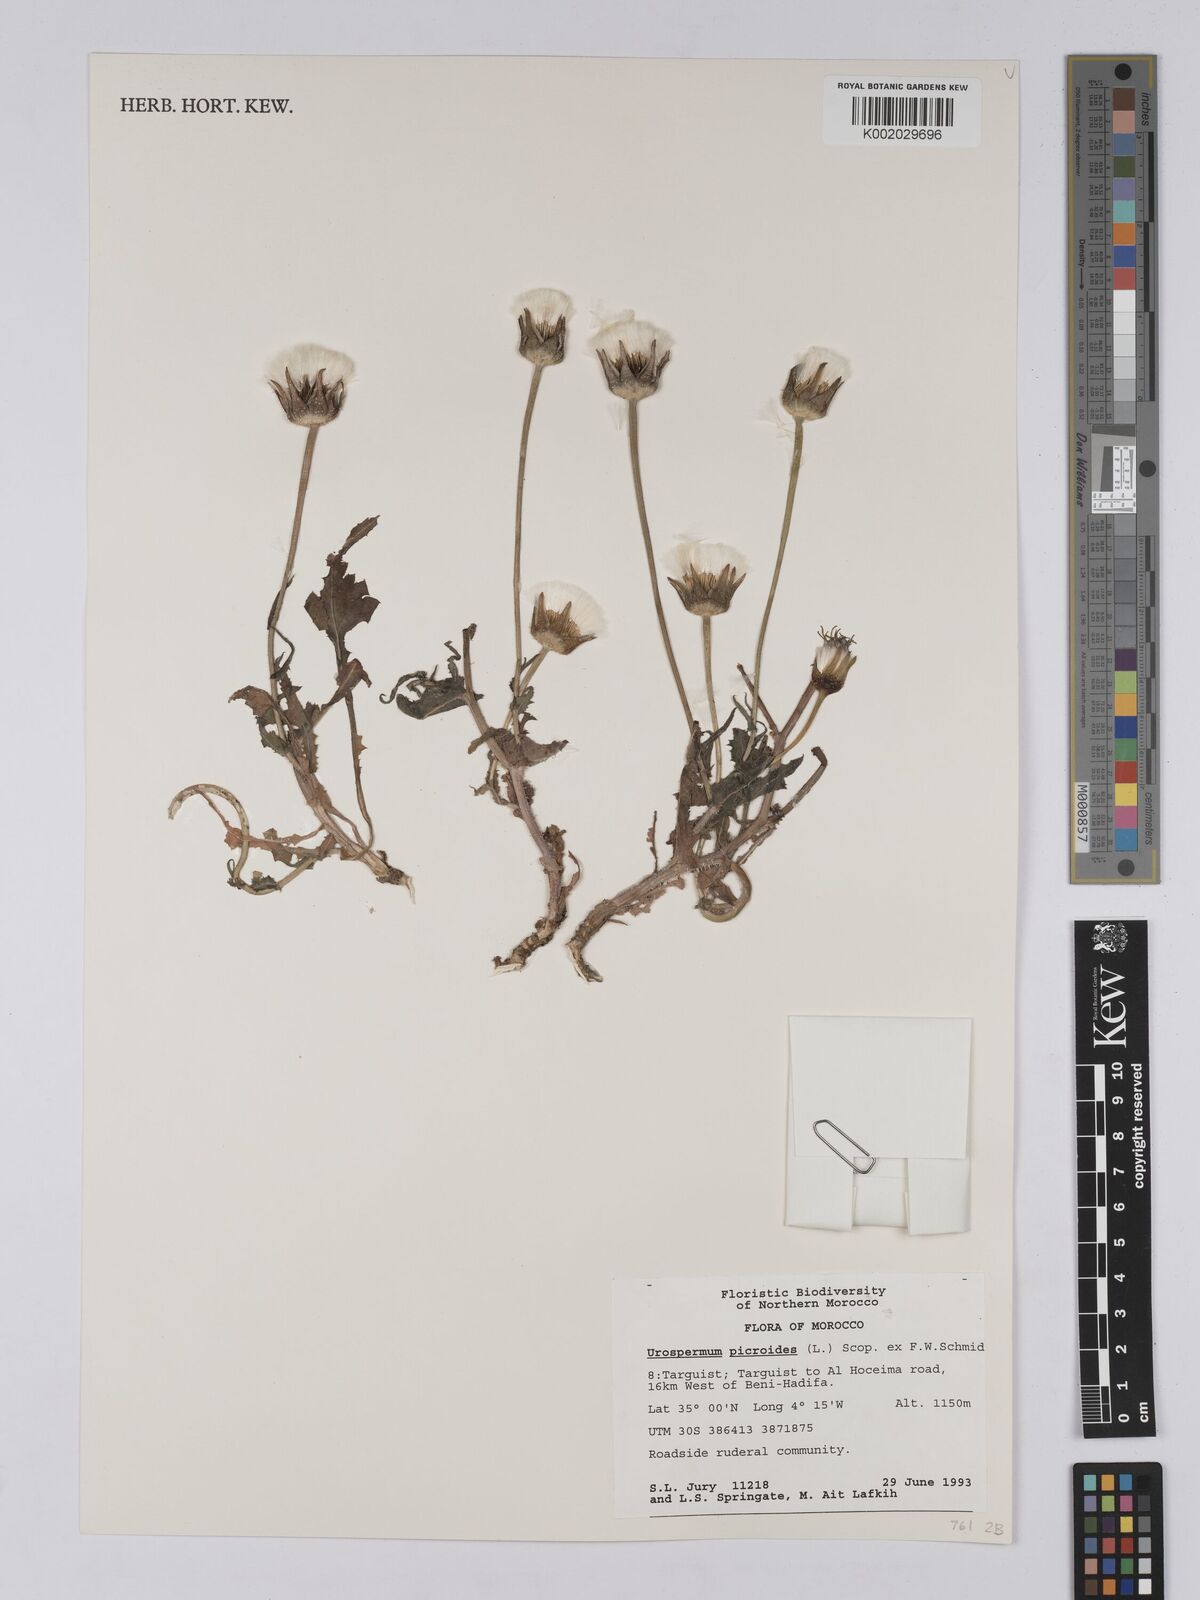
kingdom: Plantae
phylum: Tracheophyta
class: Magnoliopsida
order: Asterales
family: Asteraceae
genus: Urospermum
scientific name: Urospermum picroides
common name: False hawkbit
